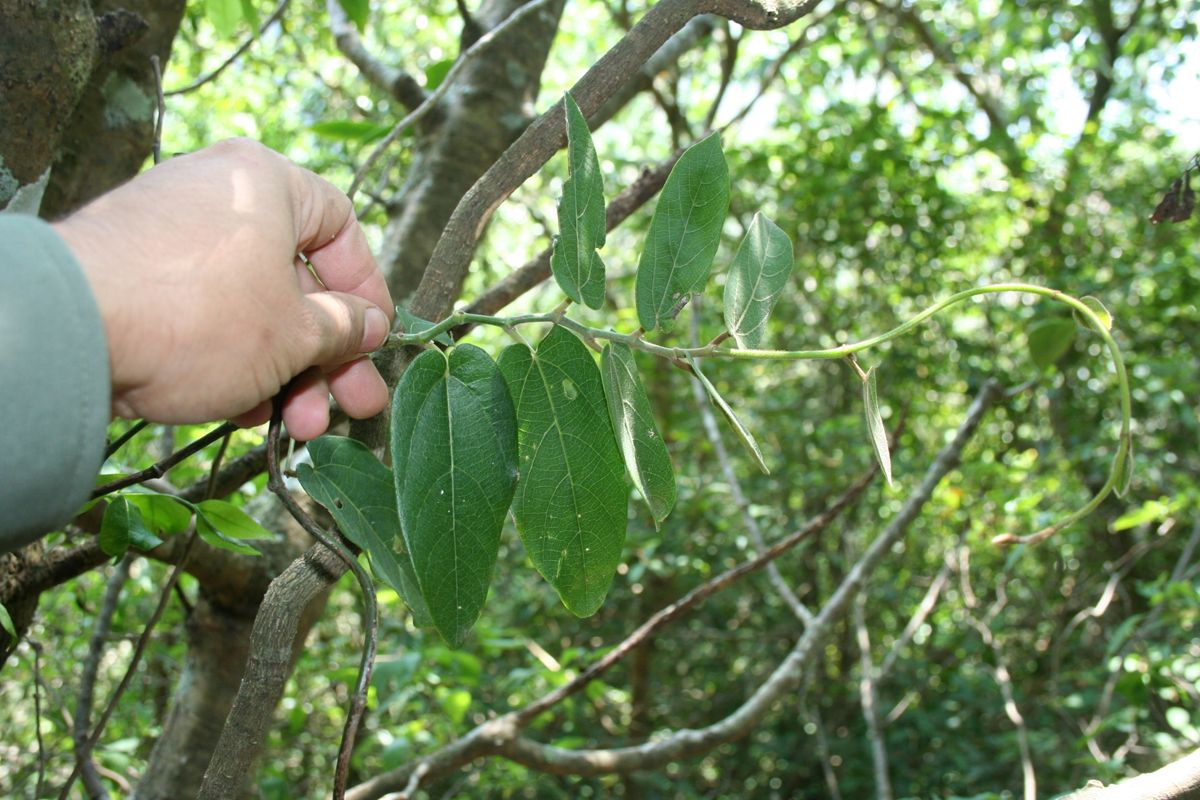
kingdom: Plantae
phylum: Tracheophyta
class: Magnoliopsida
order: Piperales
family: Aristolochiaceae
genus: Isotrema
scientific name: Isotrema stevensii
